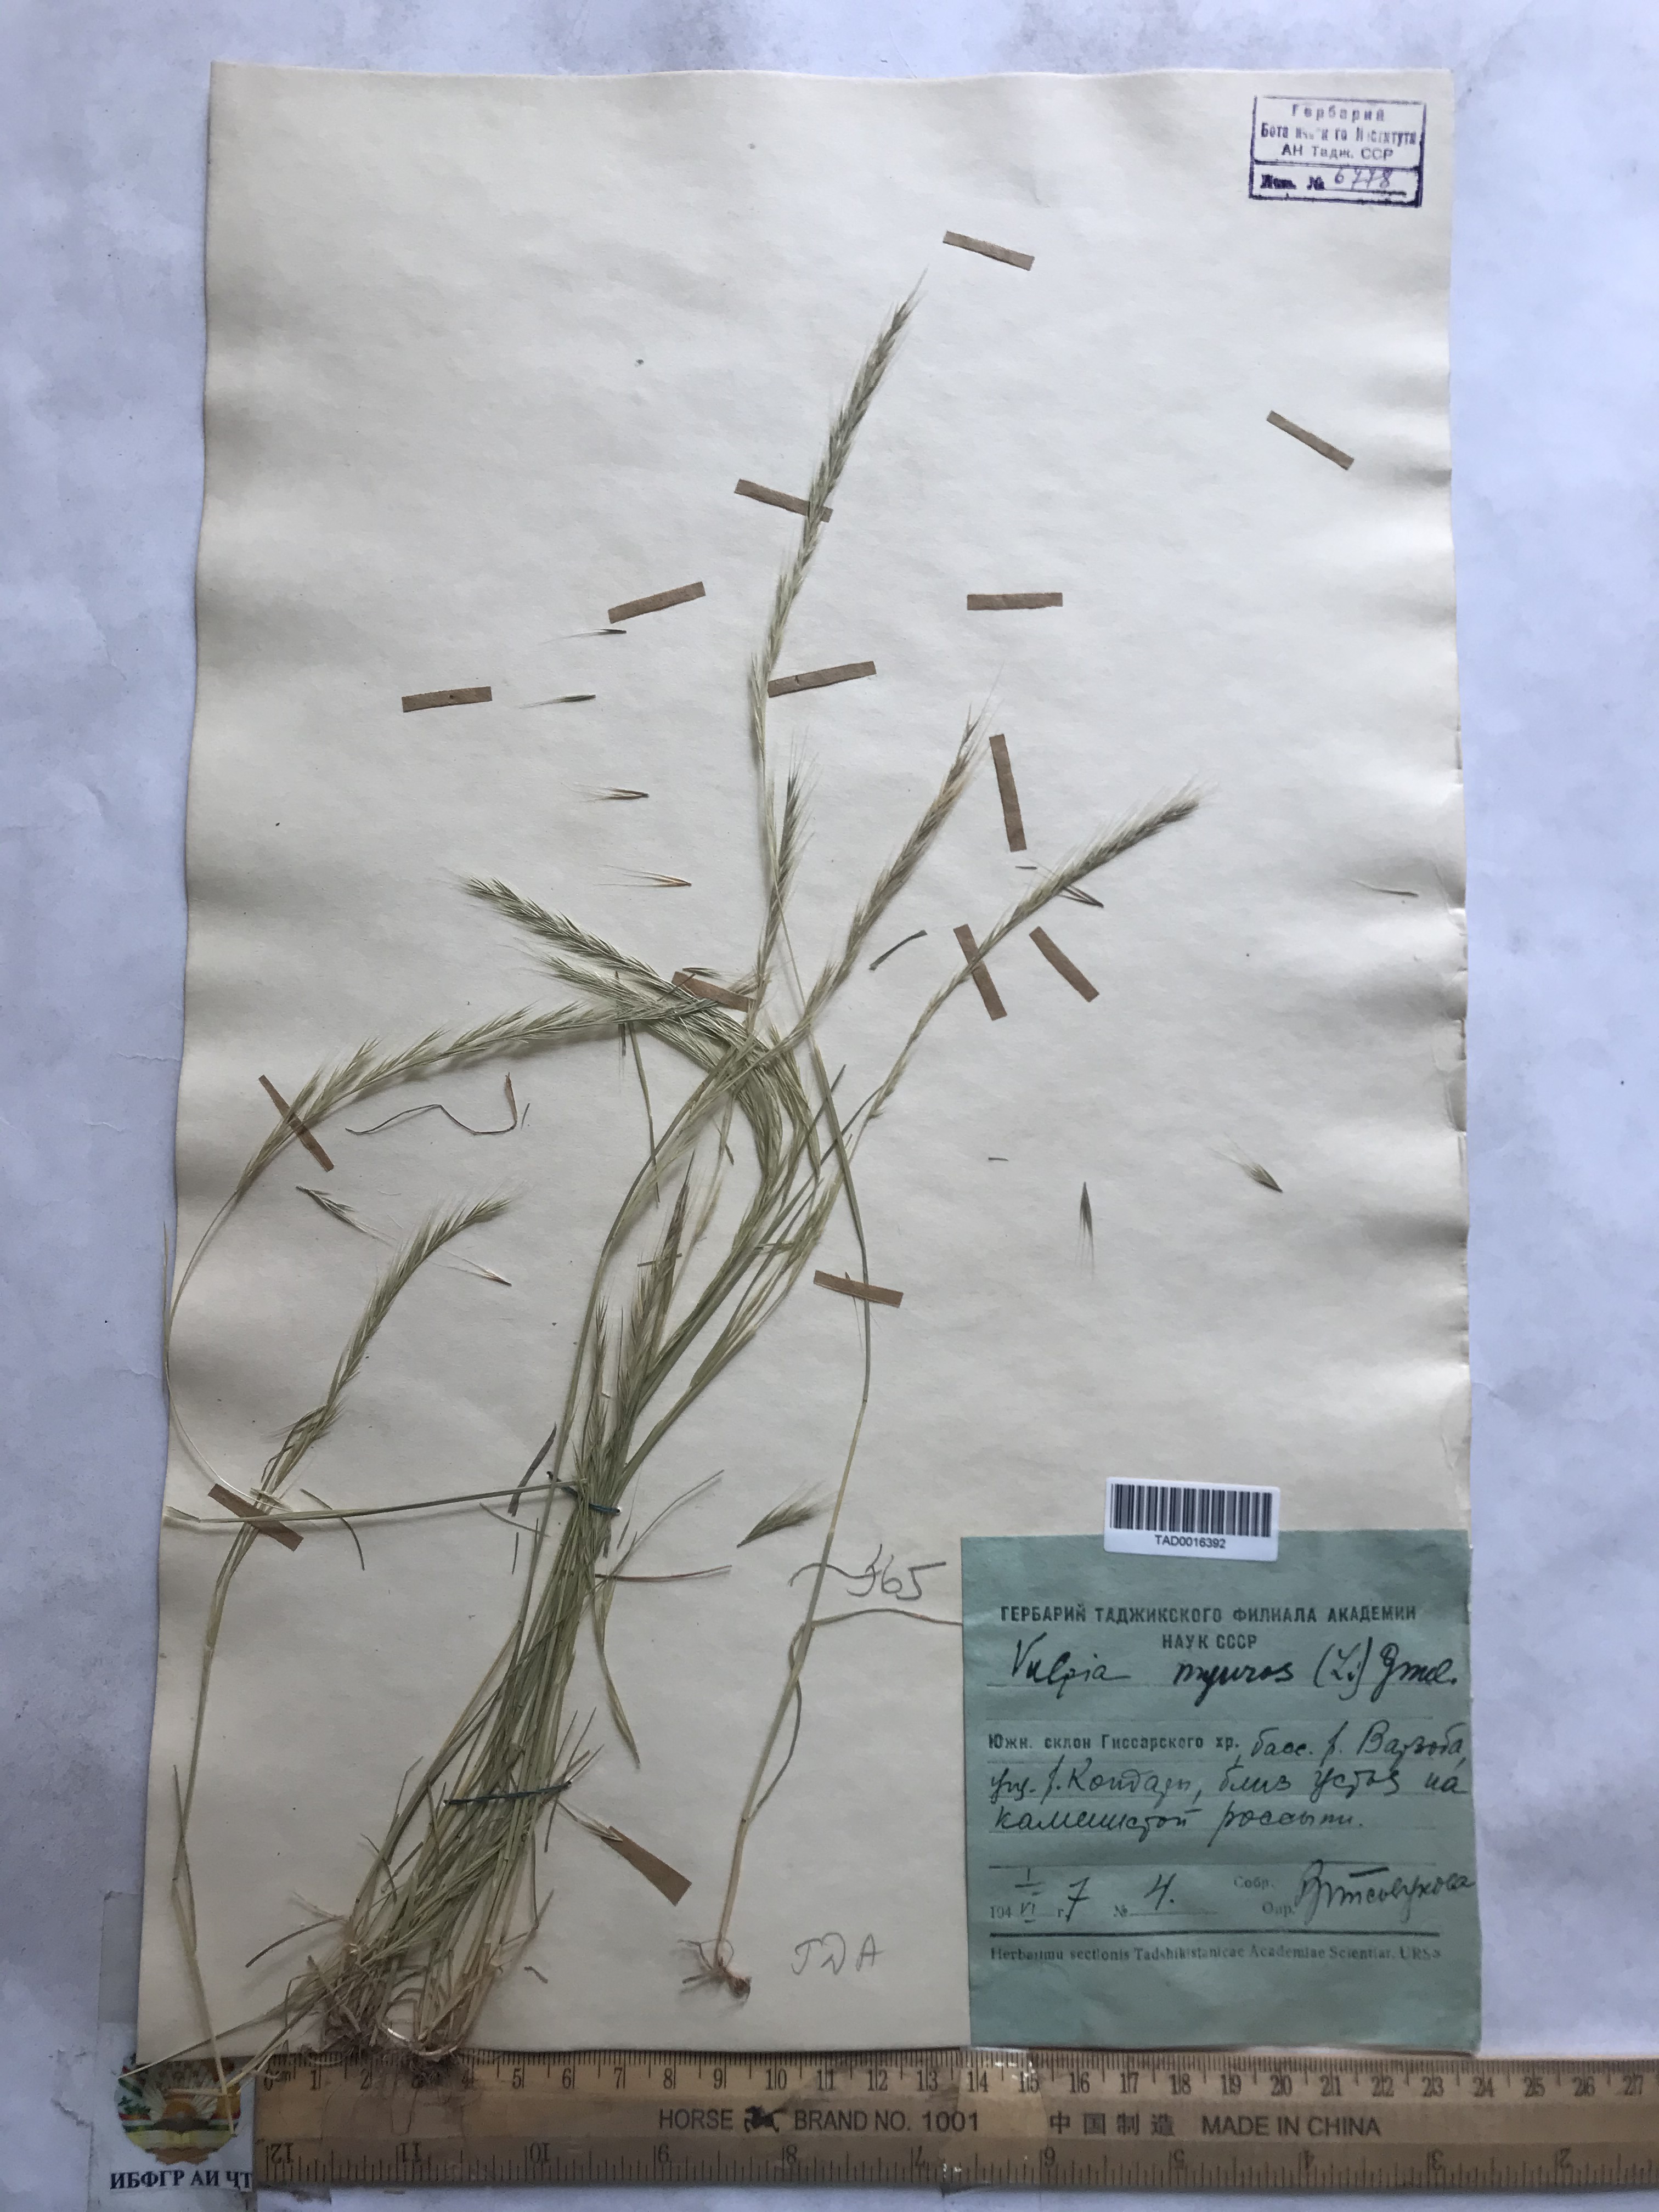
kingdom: Plantae
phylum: Tracheophyta
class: Liliopsida
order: Poales
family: Poaceae
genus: Festuca
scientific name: Festuca myuros
